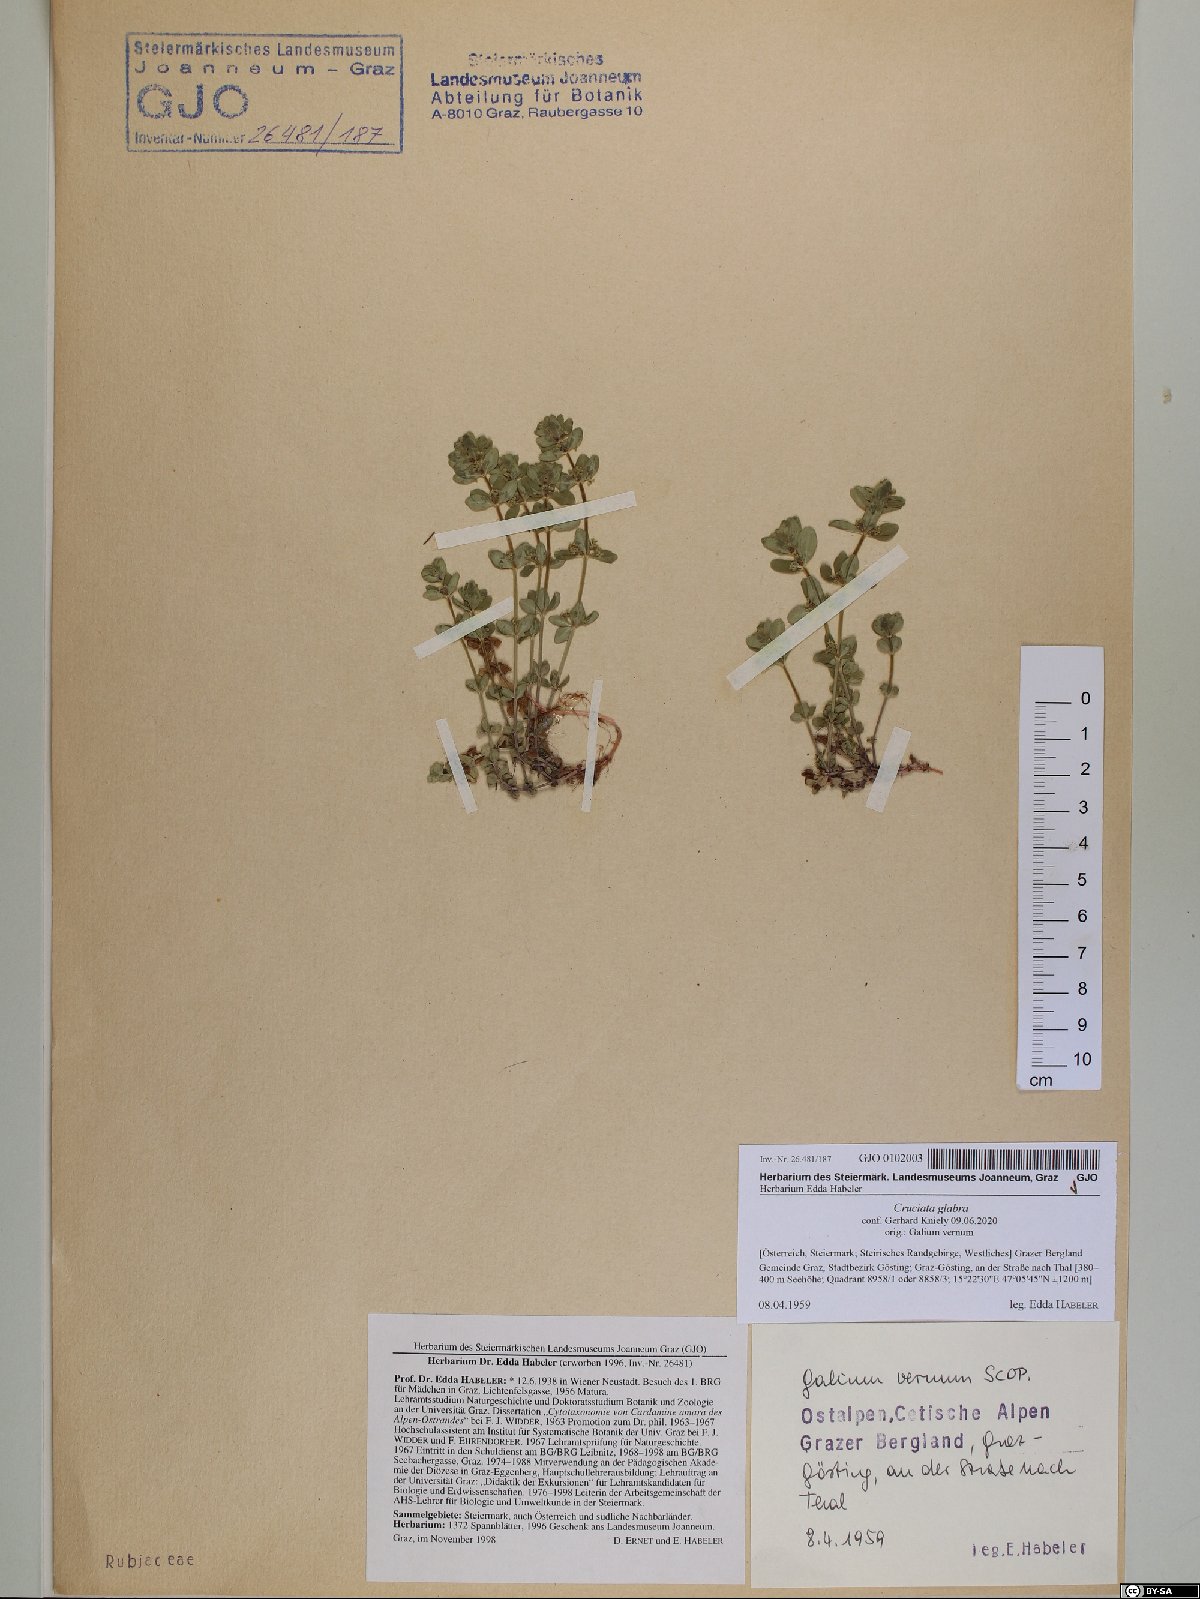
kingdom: Plantae
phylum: Tracheophyta
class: Magnoliopsida
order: Gentianales
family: Rubiaceae
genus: Cruciata
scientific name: Cruciata glabra
